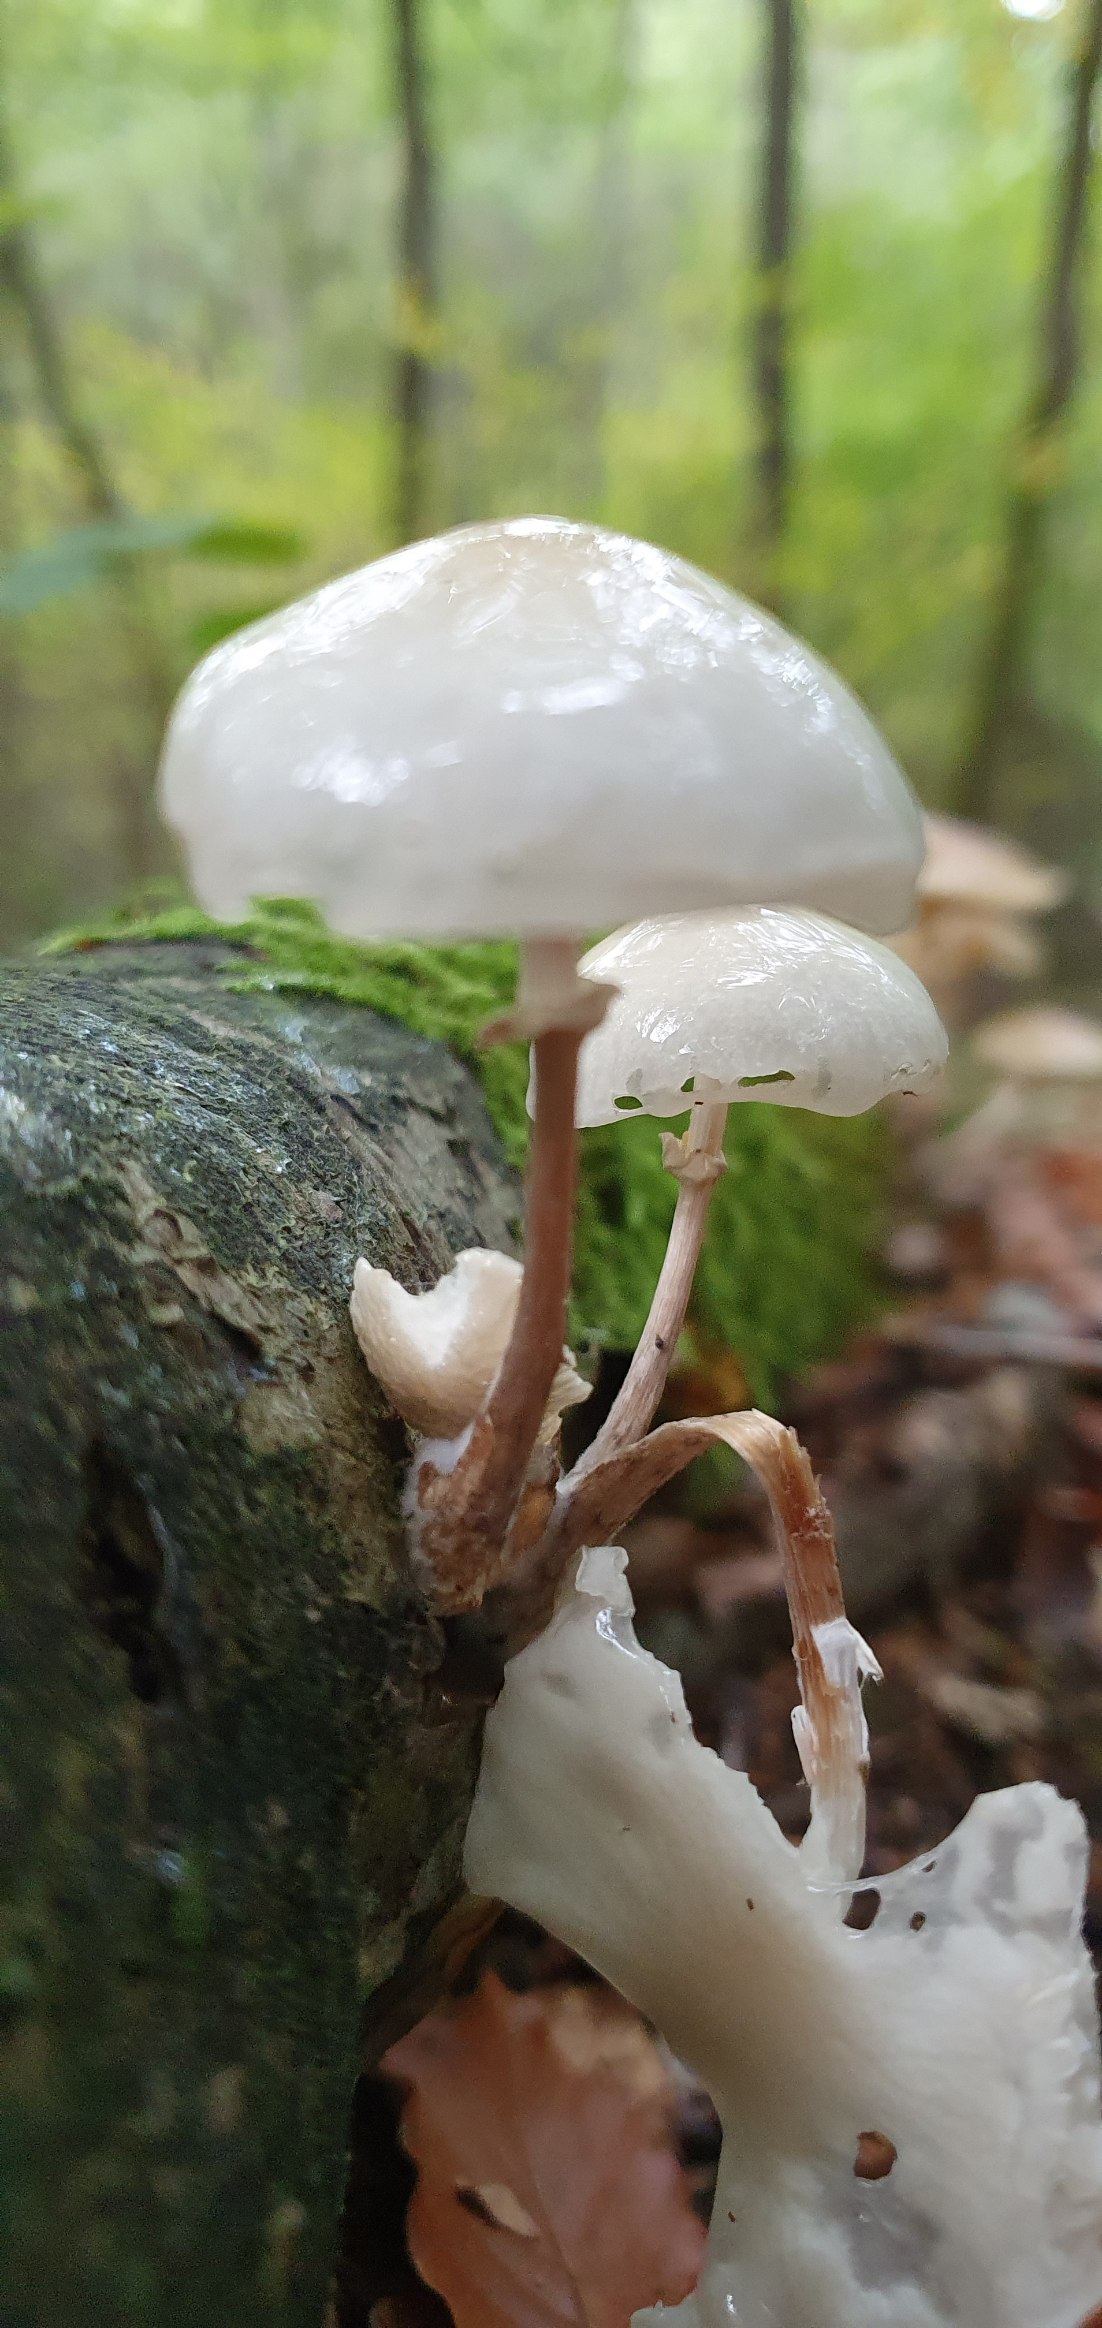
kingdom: Fungi
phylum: Basidiomycota
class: Agaricomycetes
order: Agaricales
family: Physalacriaceae
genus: Mucidula
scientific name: Mucidula mucida
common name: Porcelænshat
